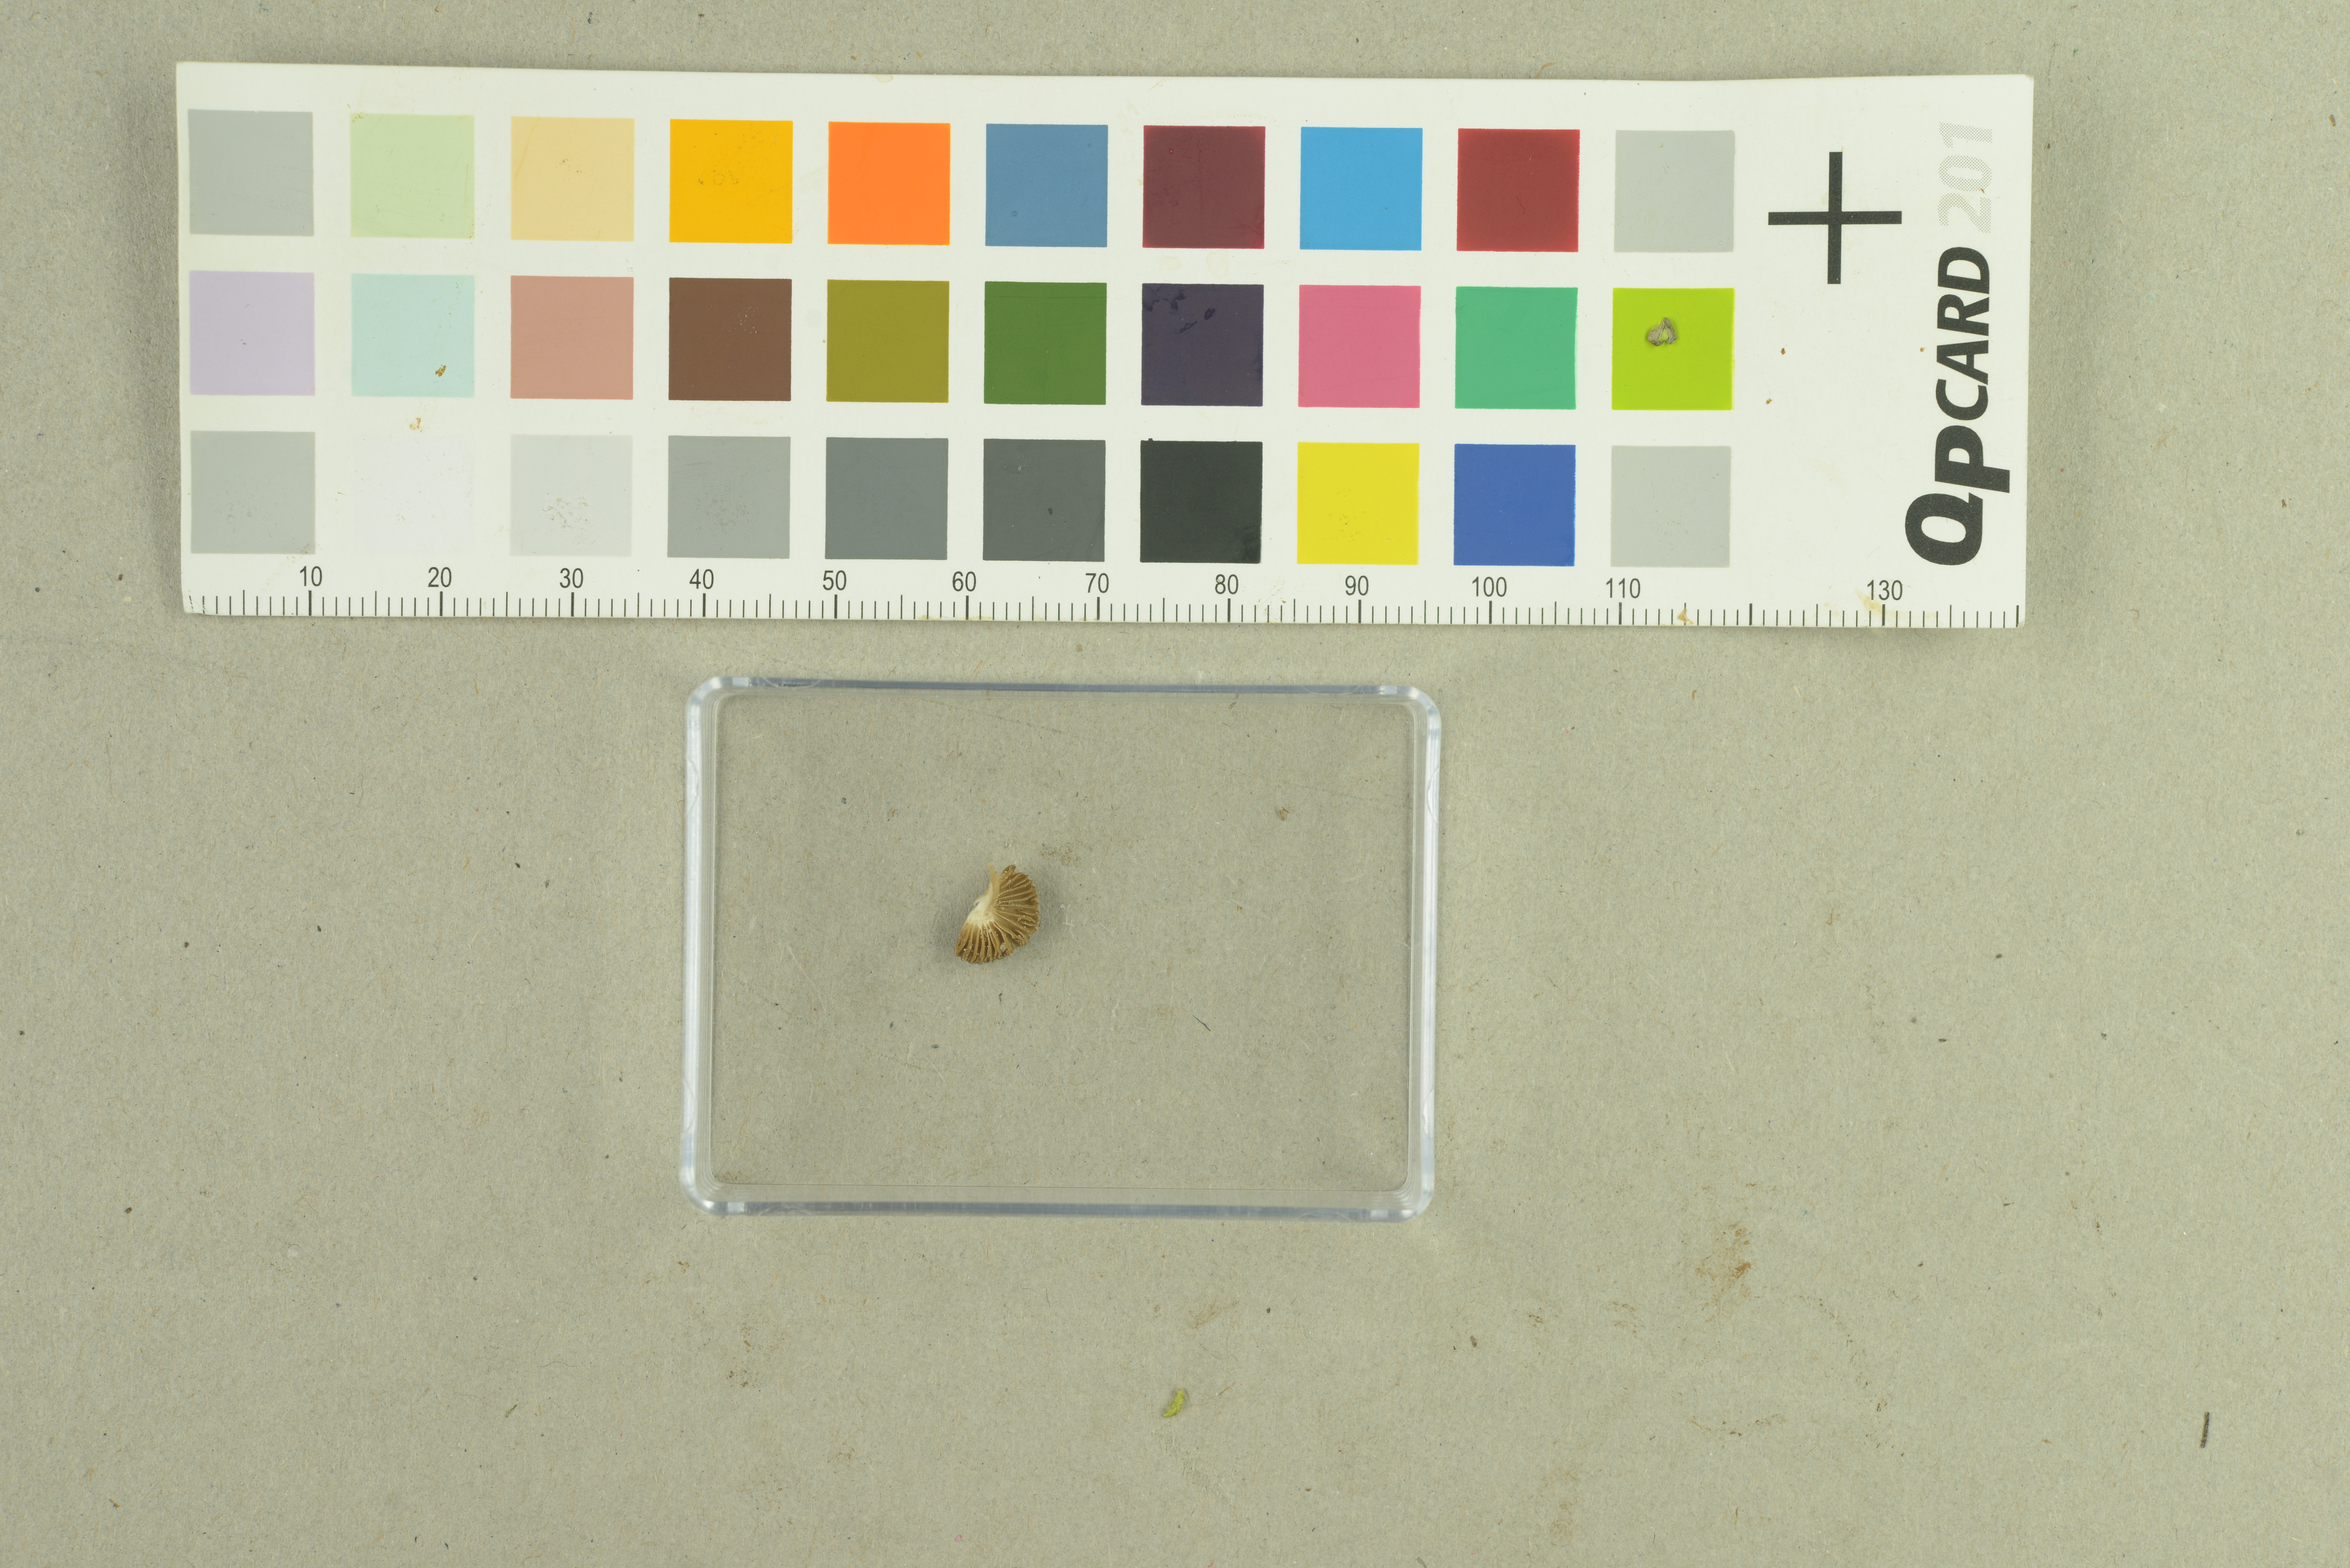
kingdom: Fungi
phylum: Basidiomycota
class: Agaricomycetes
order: Agaricales
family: Inocybaceae
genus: Inocybe
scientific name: Inocybe suecica
